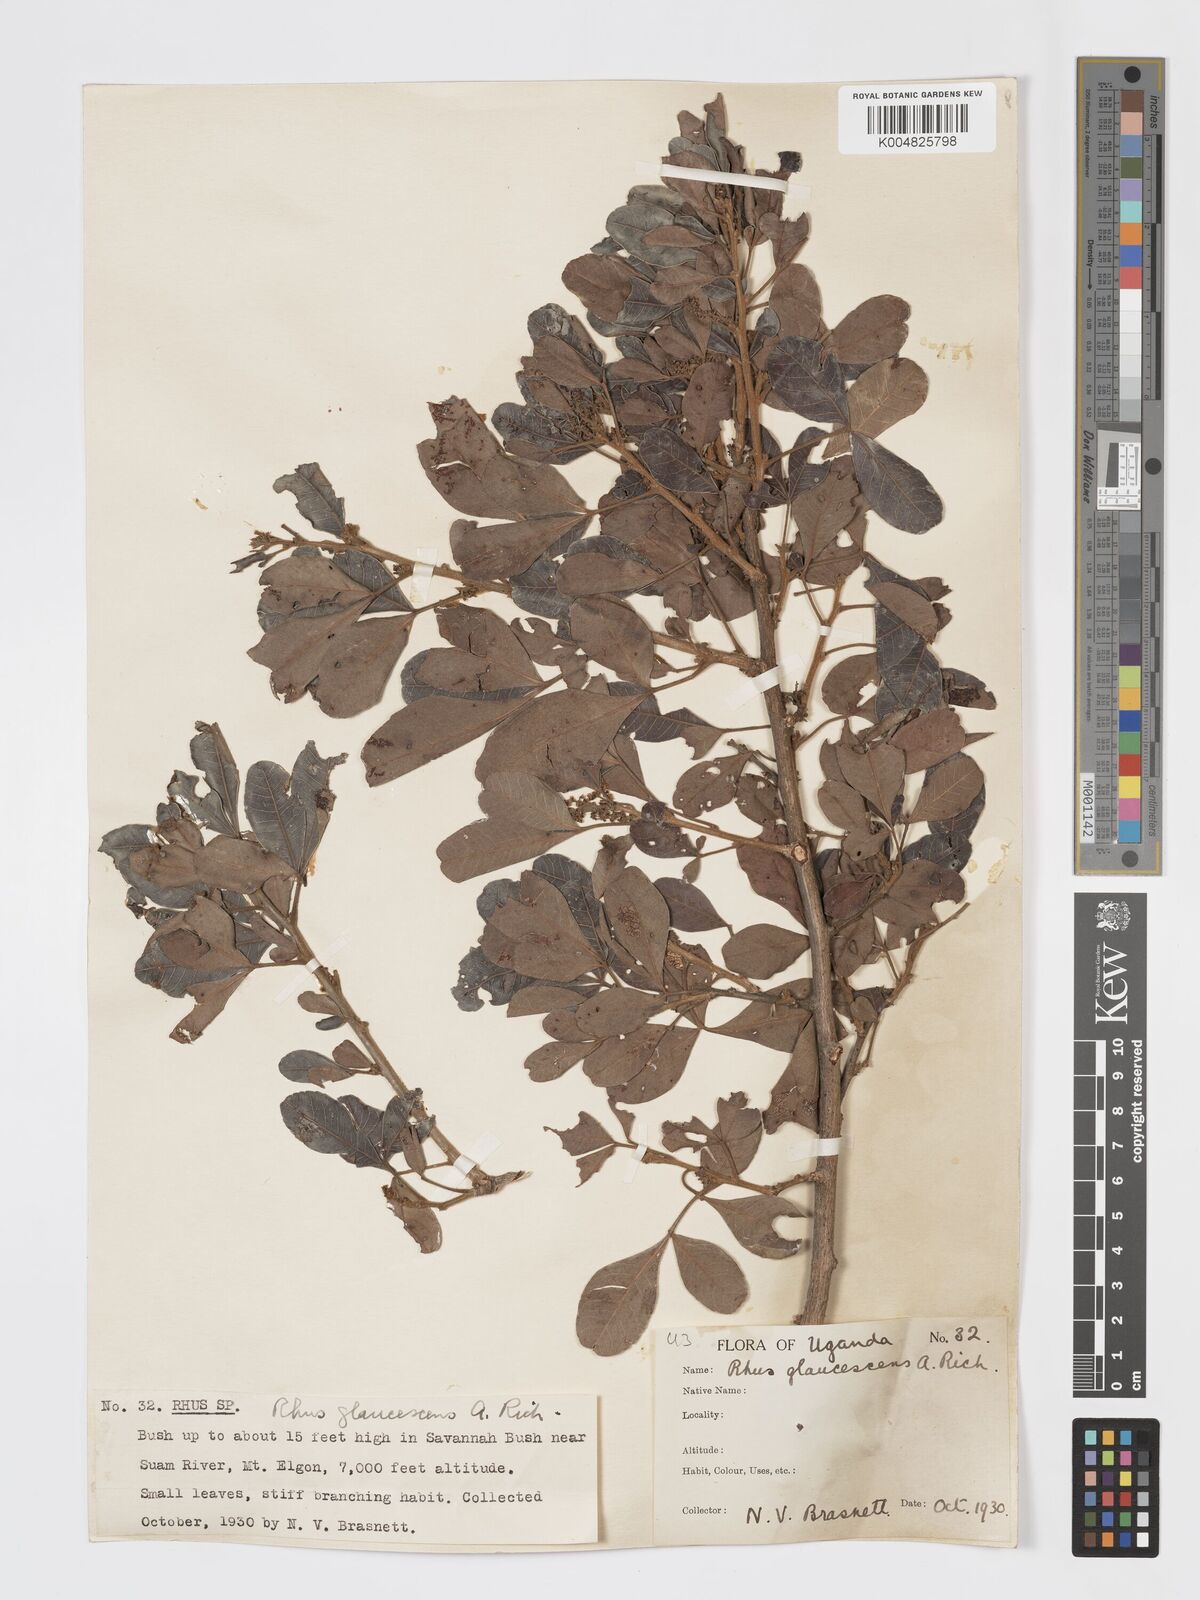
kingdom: Plantae
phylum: Tracheophyta
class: Magnoliopsida
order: Sapindales
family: Anacardiaceae
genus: Searsia
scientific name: Searsia natalensis
